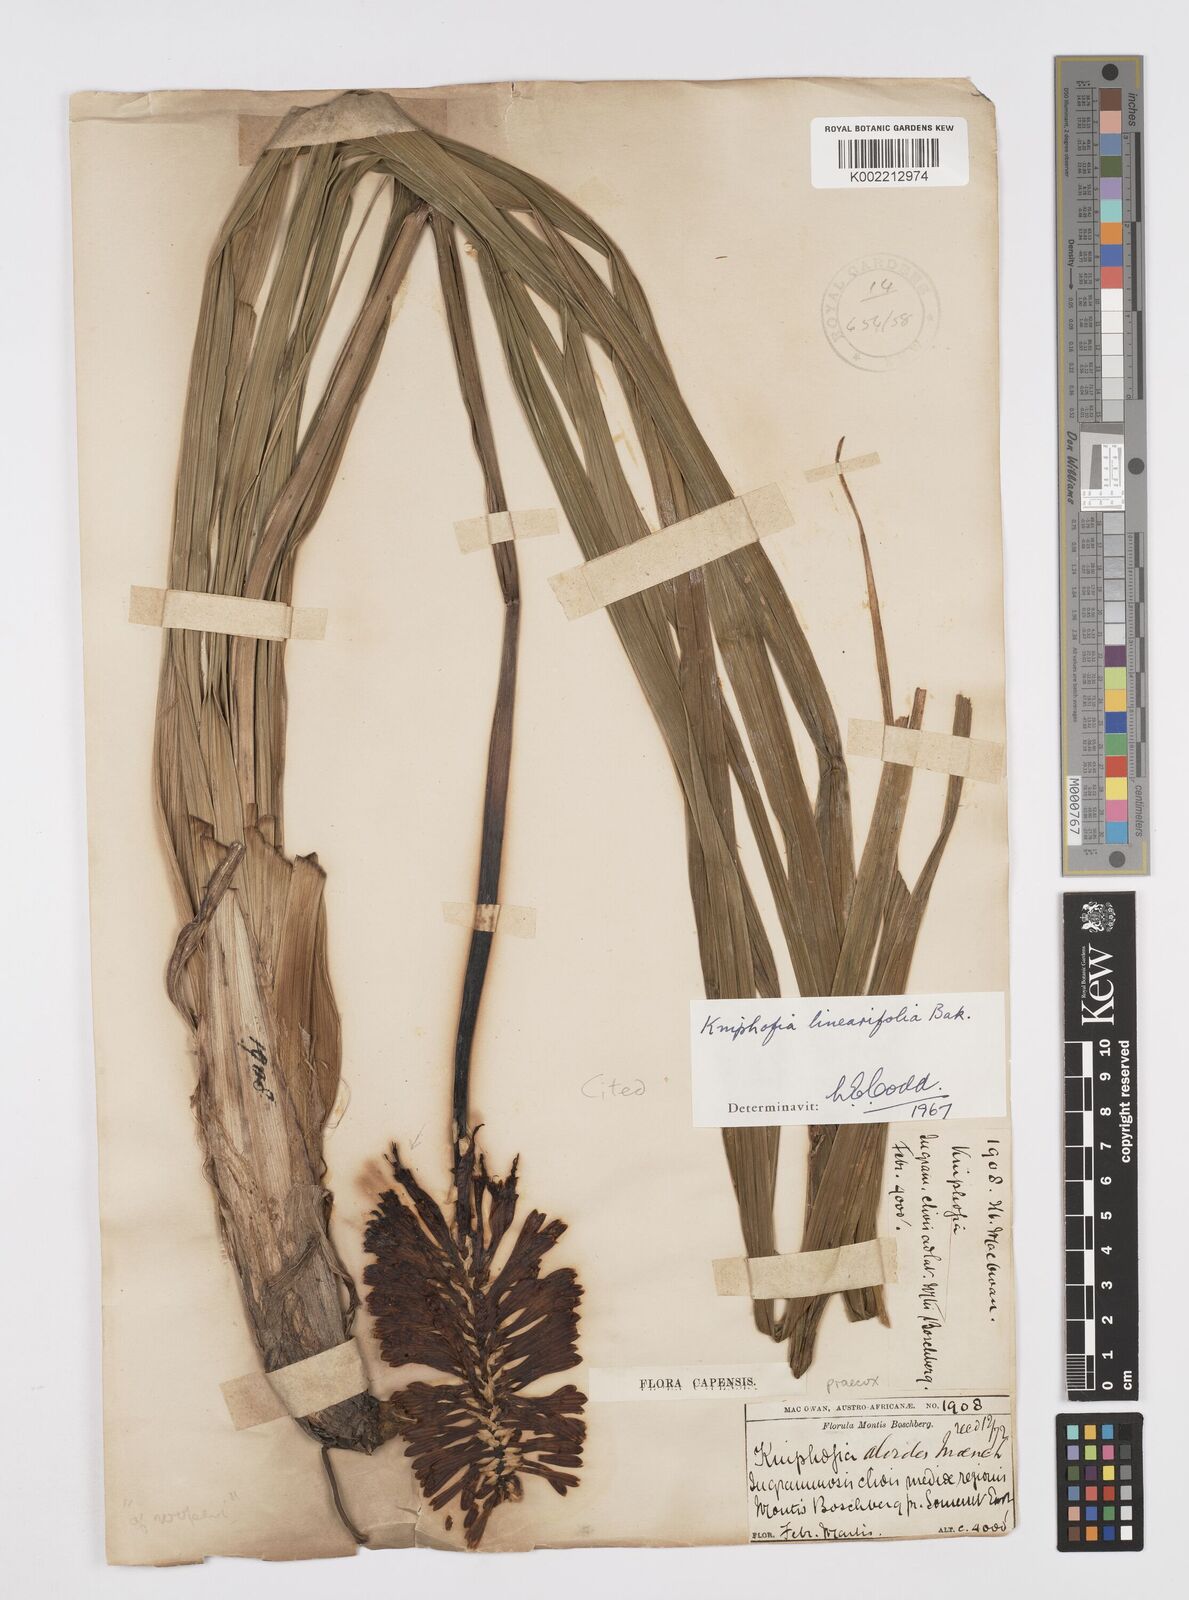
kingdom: Plantae
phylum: Tracheophyta
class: Liliopsida
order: Asparagales
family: Asphodelaceae
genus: Kniphofia
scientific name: Kniphofia linearifolia
